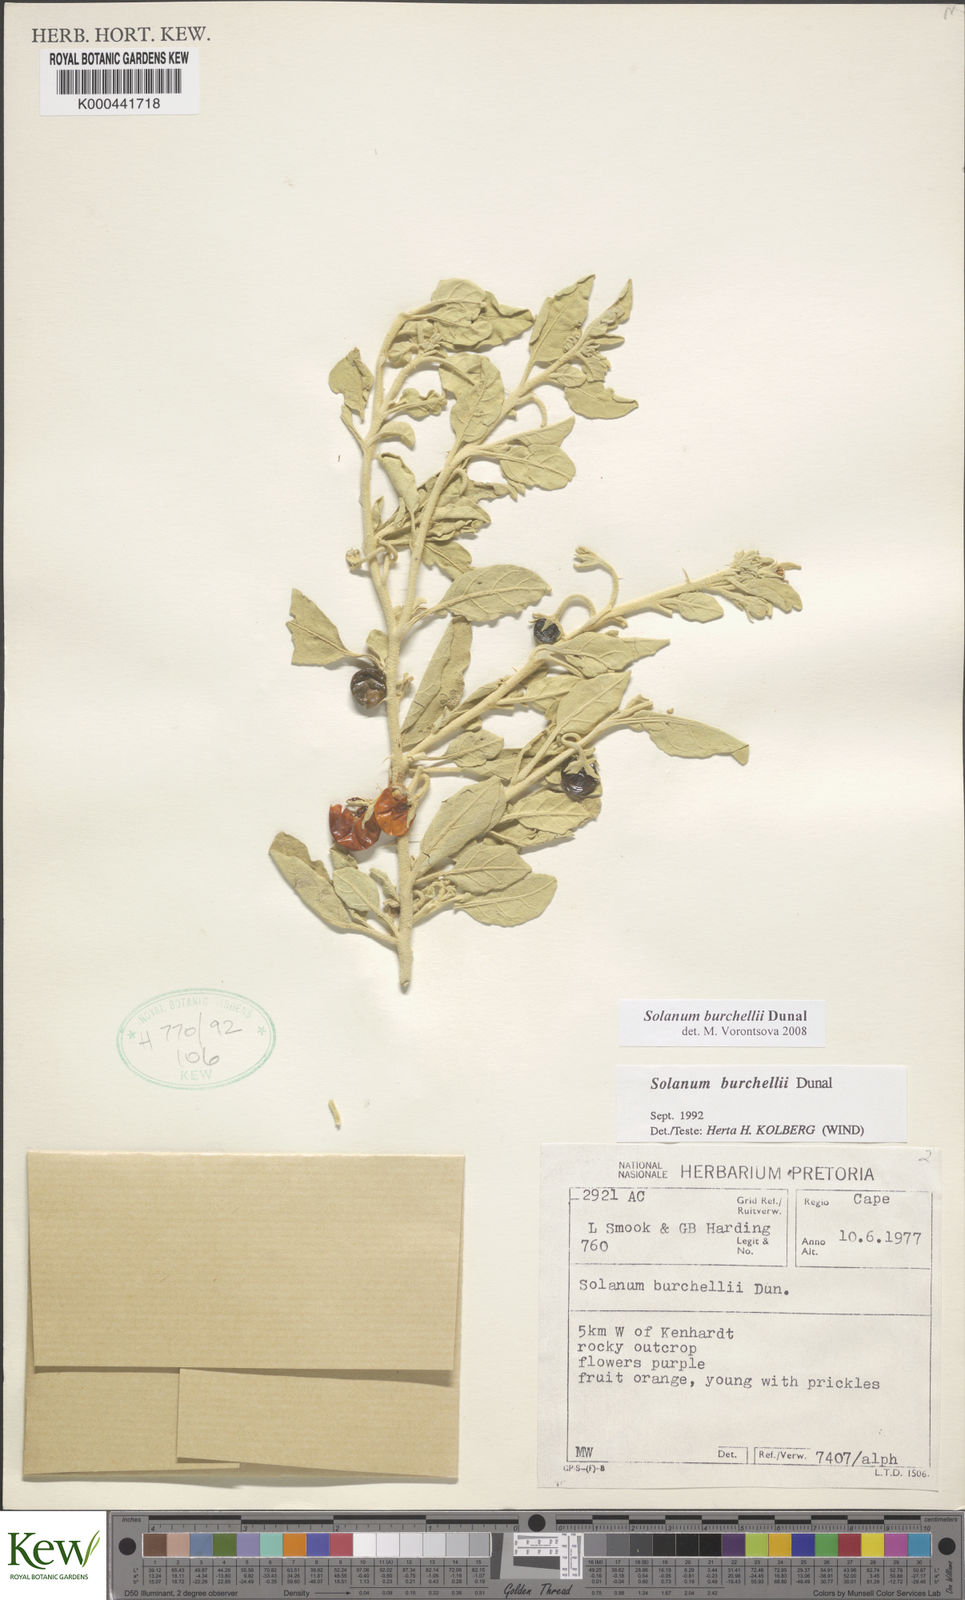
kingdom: Plantae
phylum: Tracheophyta
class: Magnoliopsida
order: Solanales
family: Solanaceae
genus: Solanum
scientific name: Solanum burchellii
